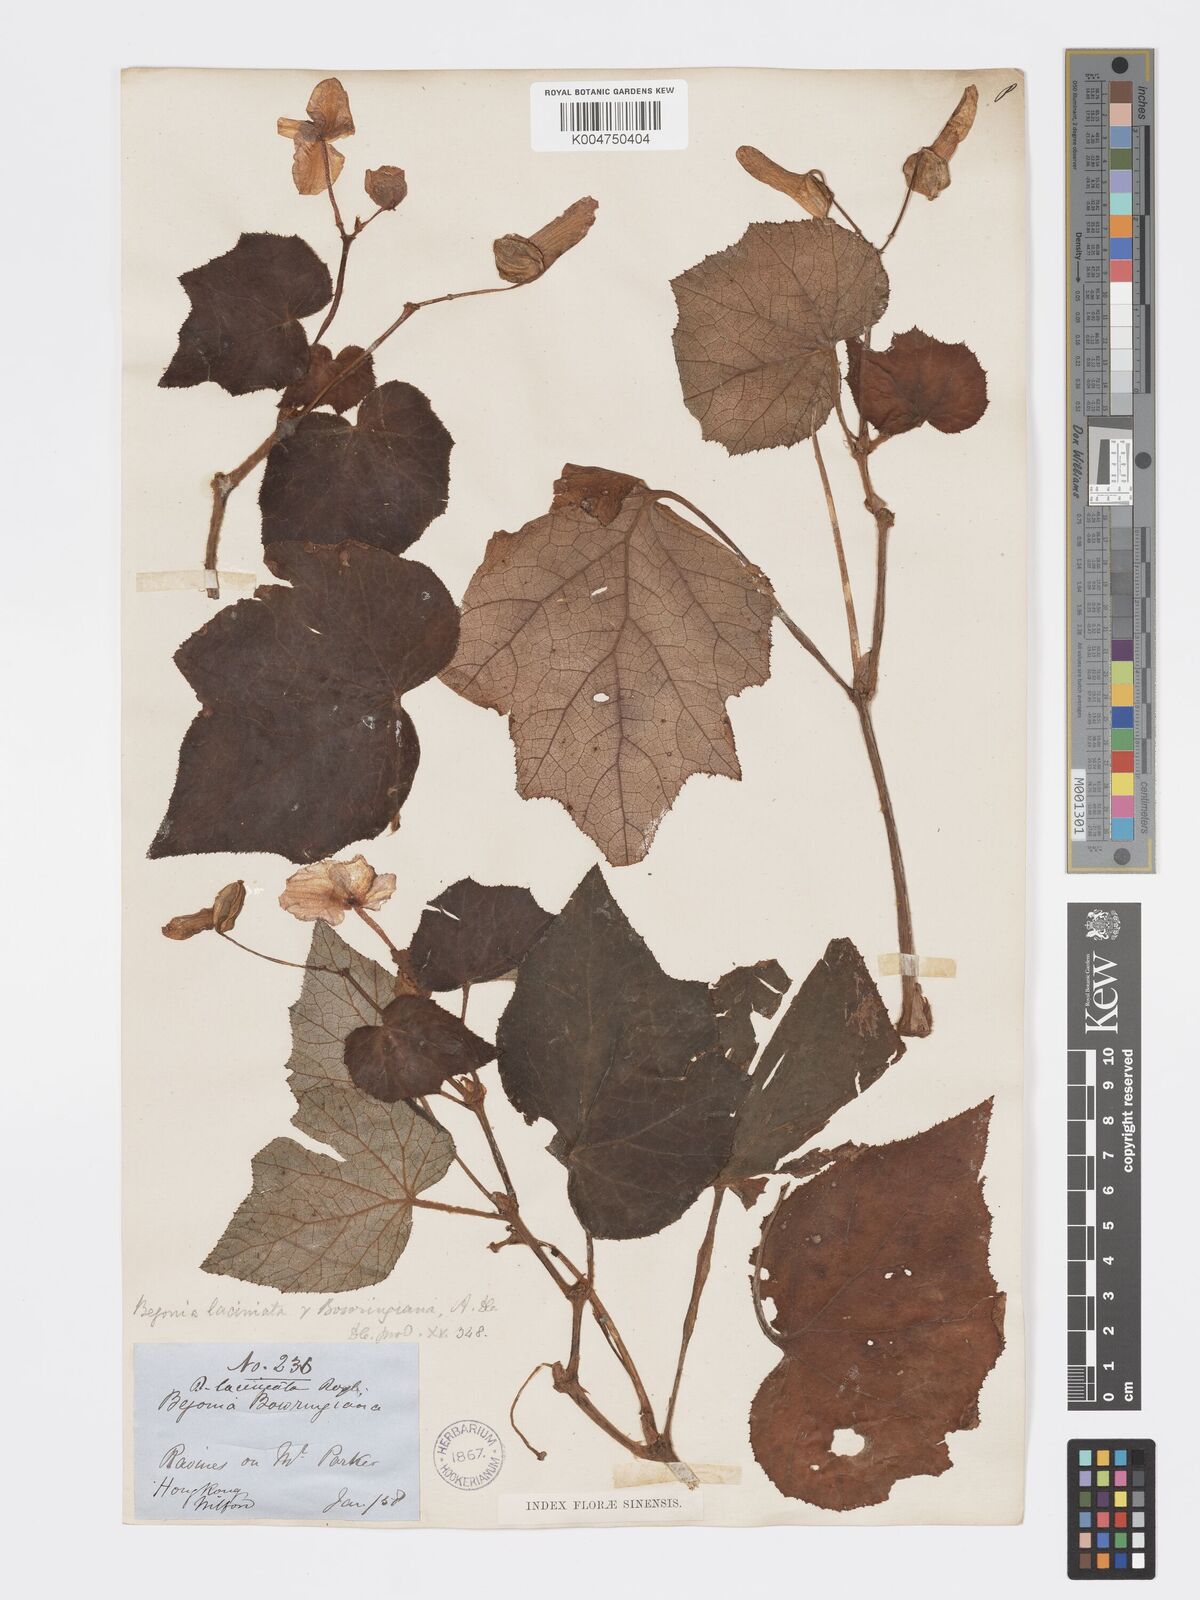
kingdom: Plantae
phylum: Tracheophyta
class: Magnoliopsida
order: Cucurbitales
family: Begoniaceae
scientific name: Begoniaceae
